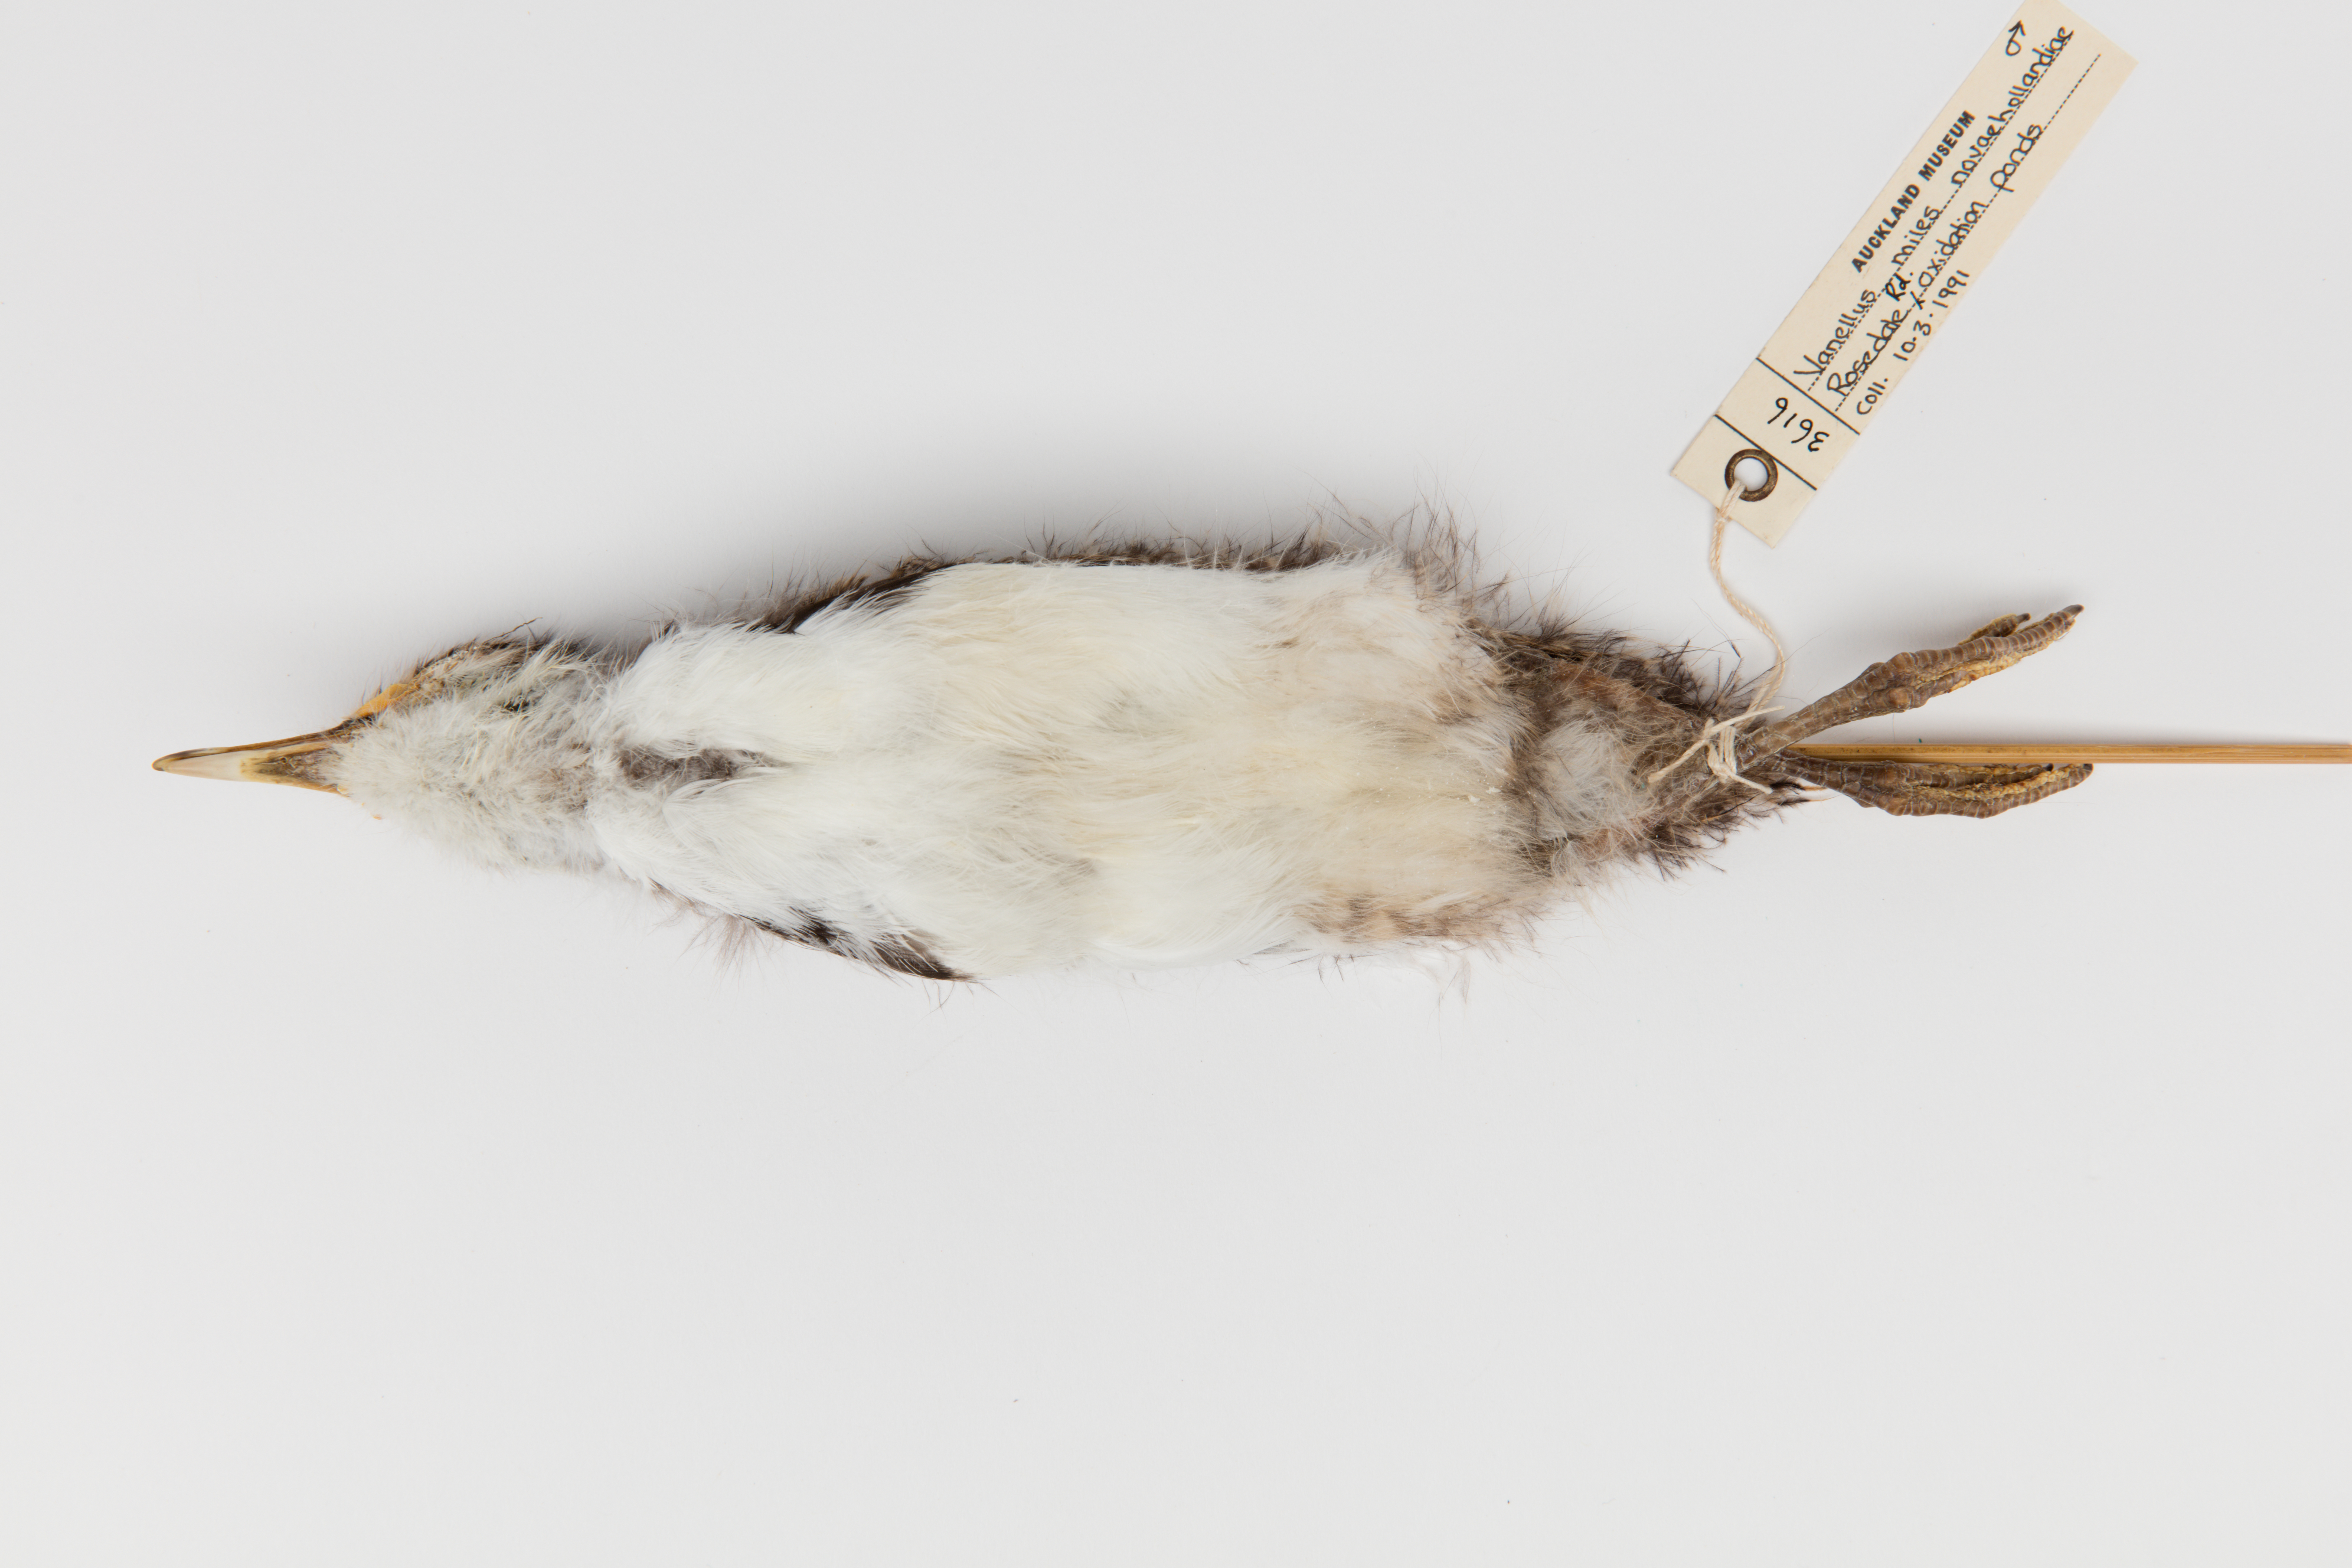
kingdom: Animalia
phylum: Chordata
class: Aves
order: Charadriiformes
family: Charadriidae
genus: Vanellus
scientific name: Vanellus miles
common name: Masked lapwing
